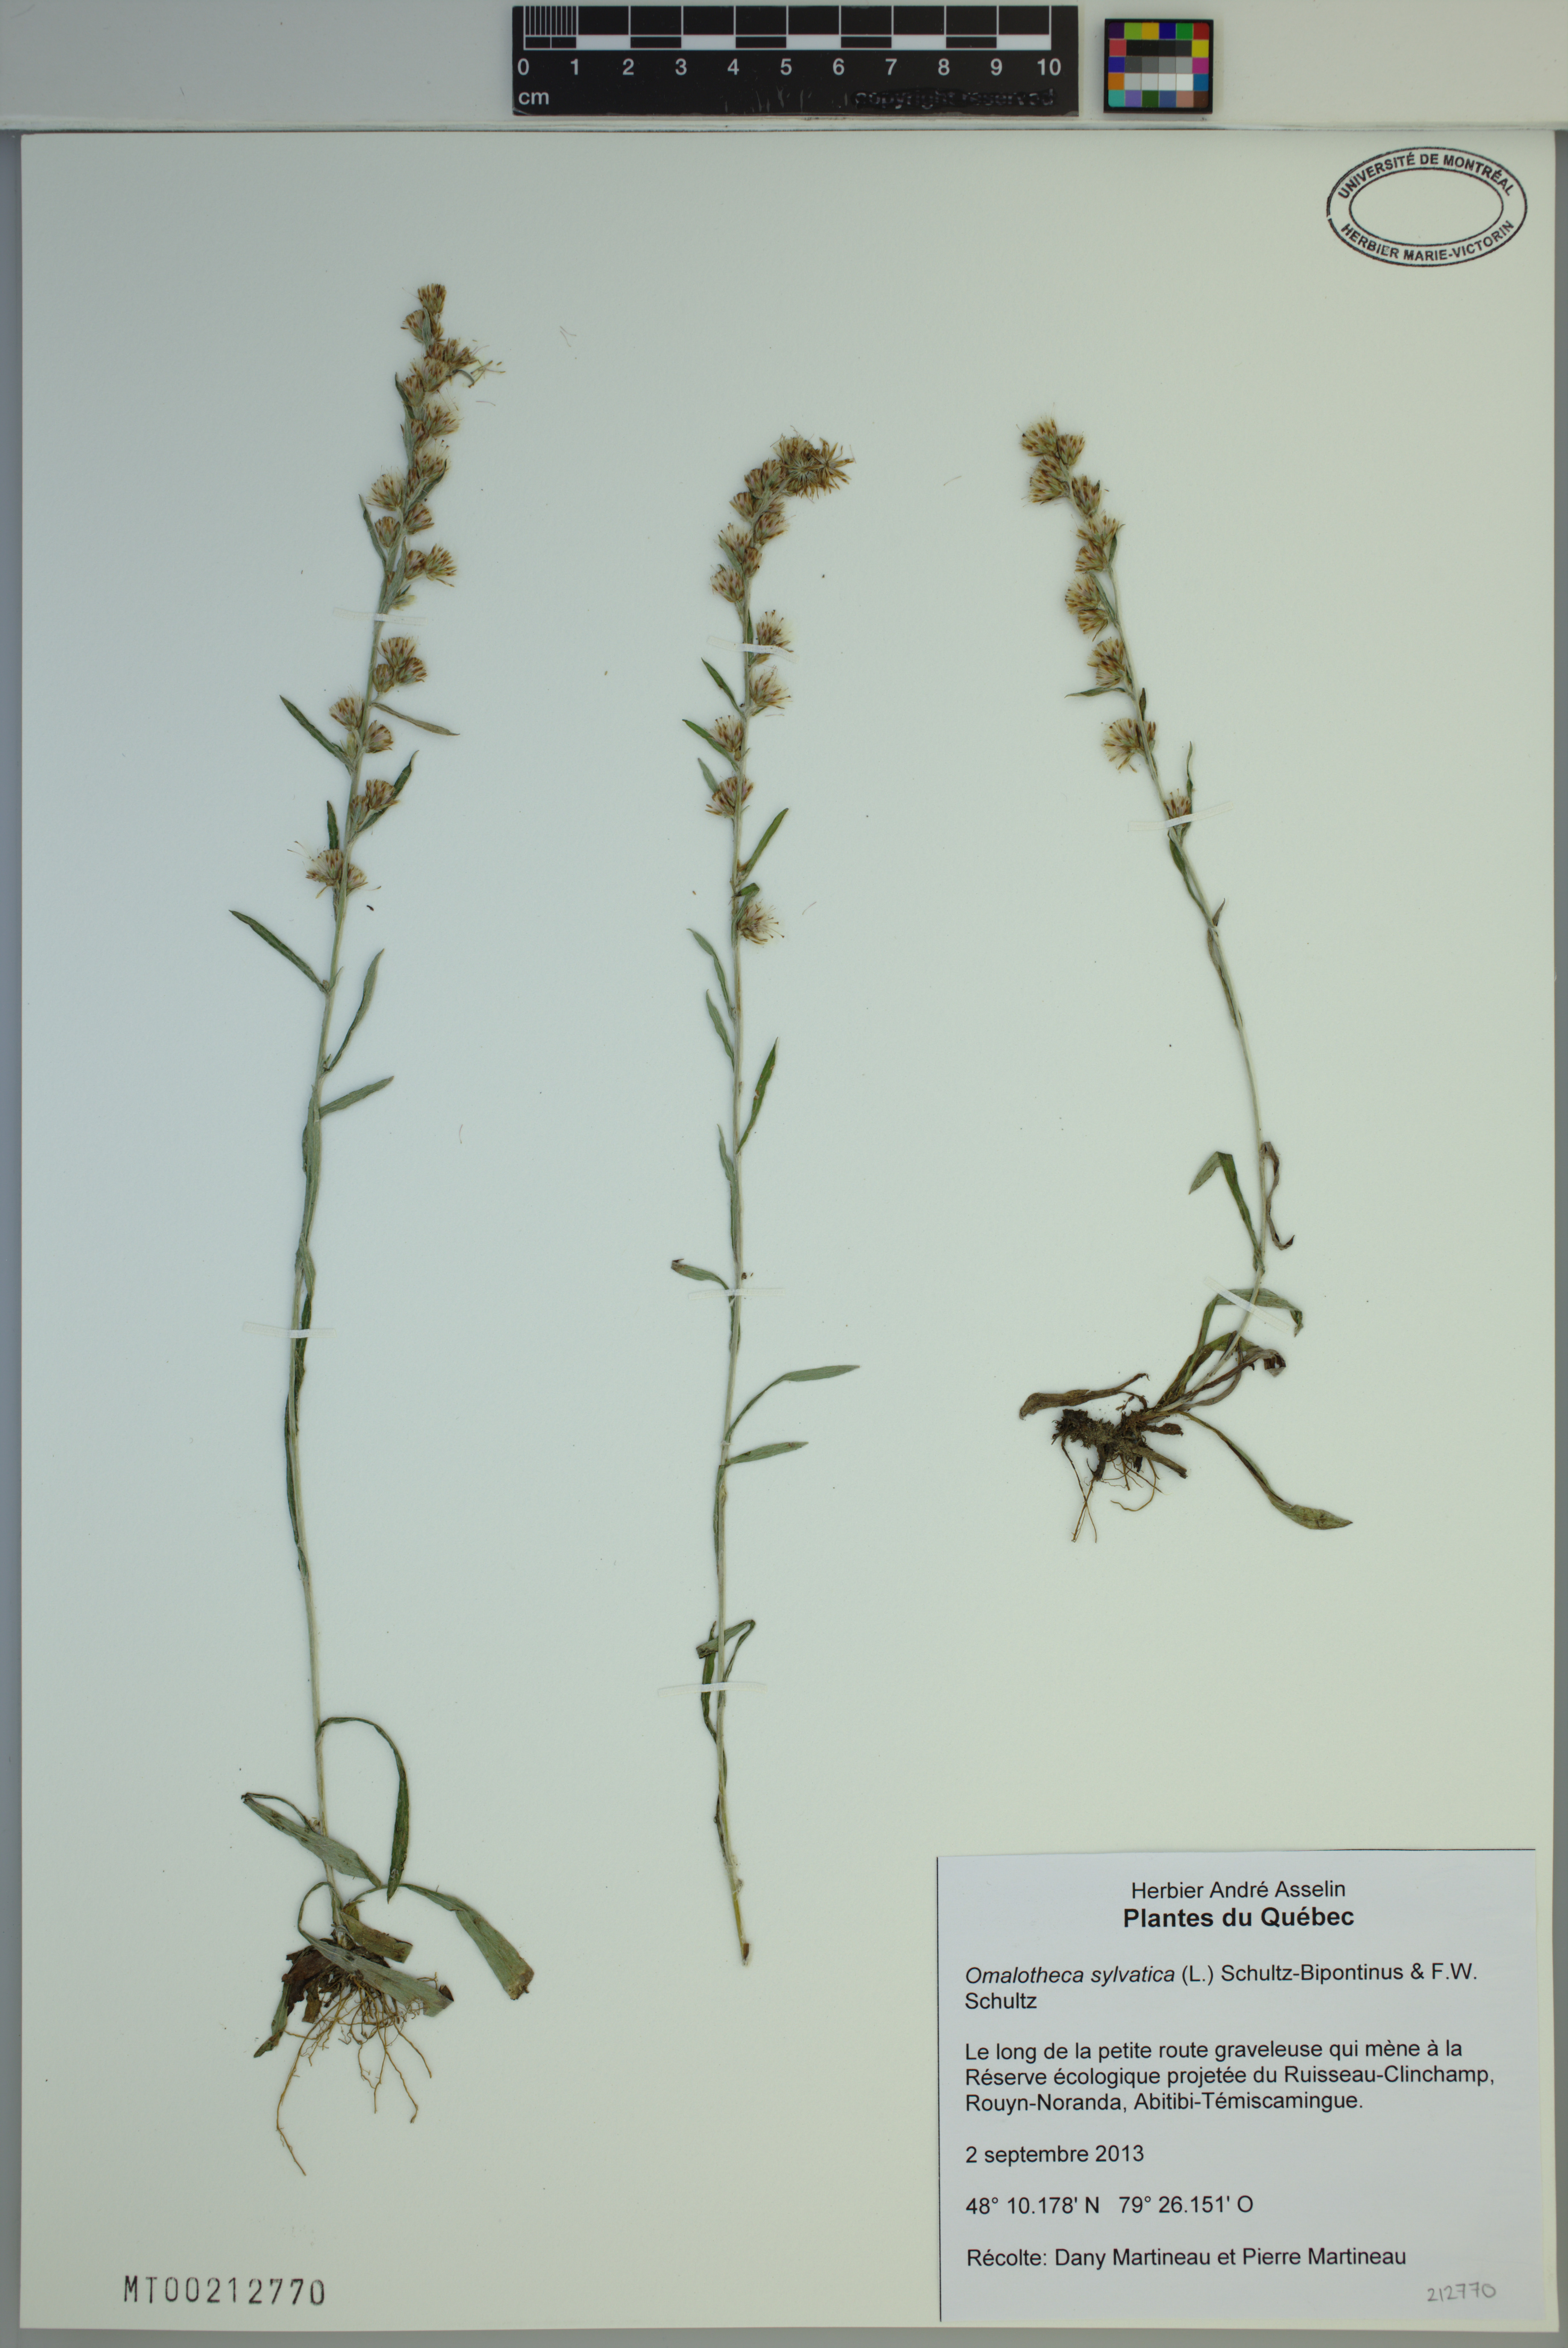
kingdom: Plantae
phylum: Tracheophyta
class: Magnoliopsida
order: Asterales
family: Asteraceae
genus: Omalotheca
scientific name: Omalotheca sylvatica
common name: Heath cudweed
